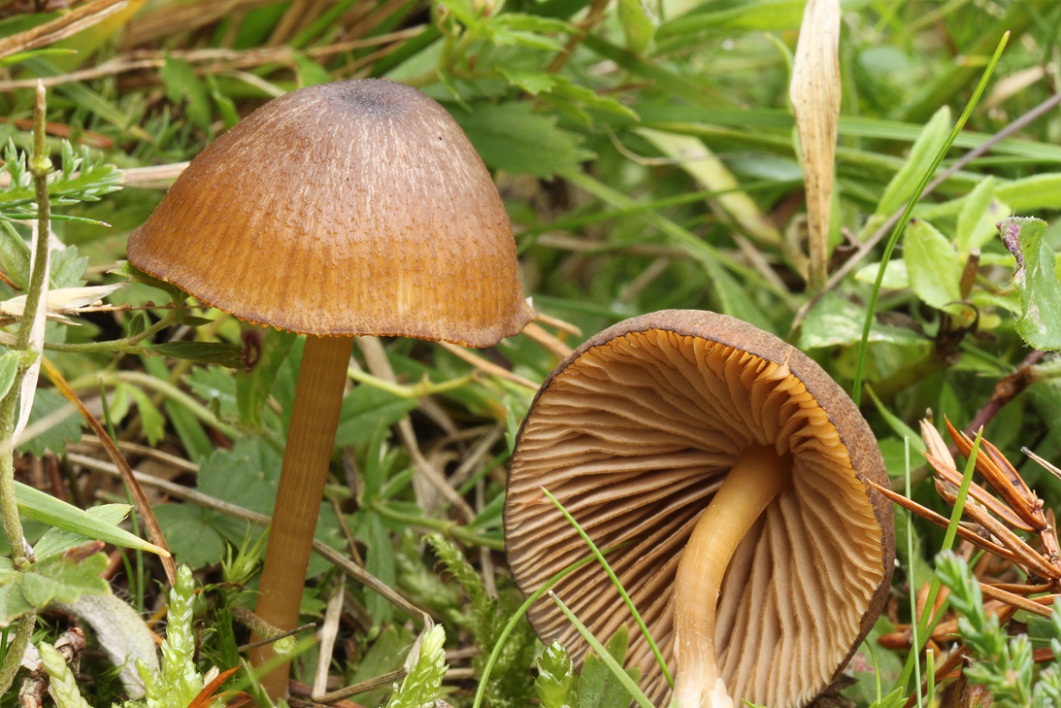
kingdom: Fungi
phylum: Basidiomycota
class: Agaricomycetes
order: Agaricales
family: Entolomataceae
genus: Entoloma
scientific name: Entoloma aurantioalpinum
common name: brungul rødblad
